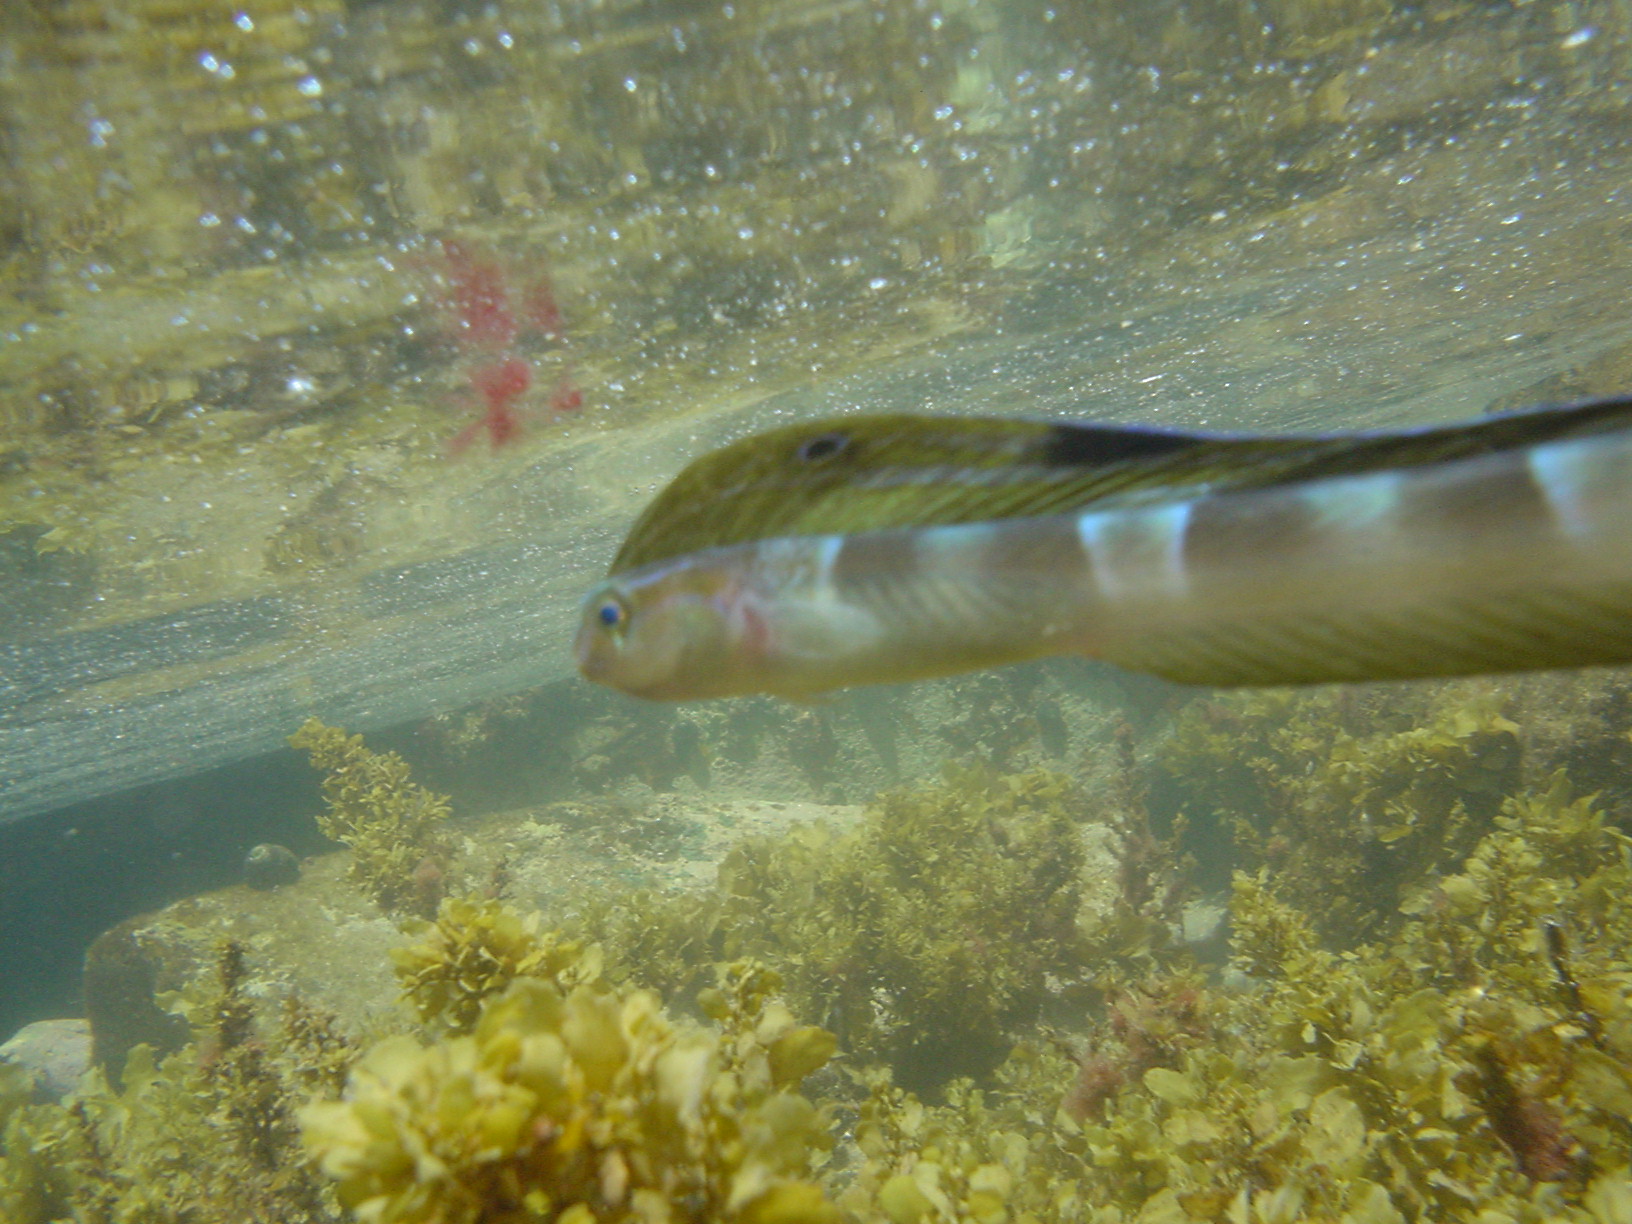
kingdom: Animalia
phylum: Chordata
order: Perciformes
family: Blenniidae
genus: Xiphasia
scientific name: Xiphasia setifer
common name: Hair tailed blenny
